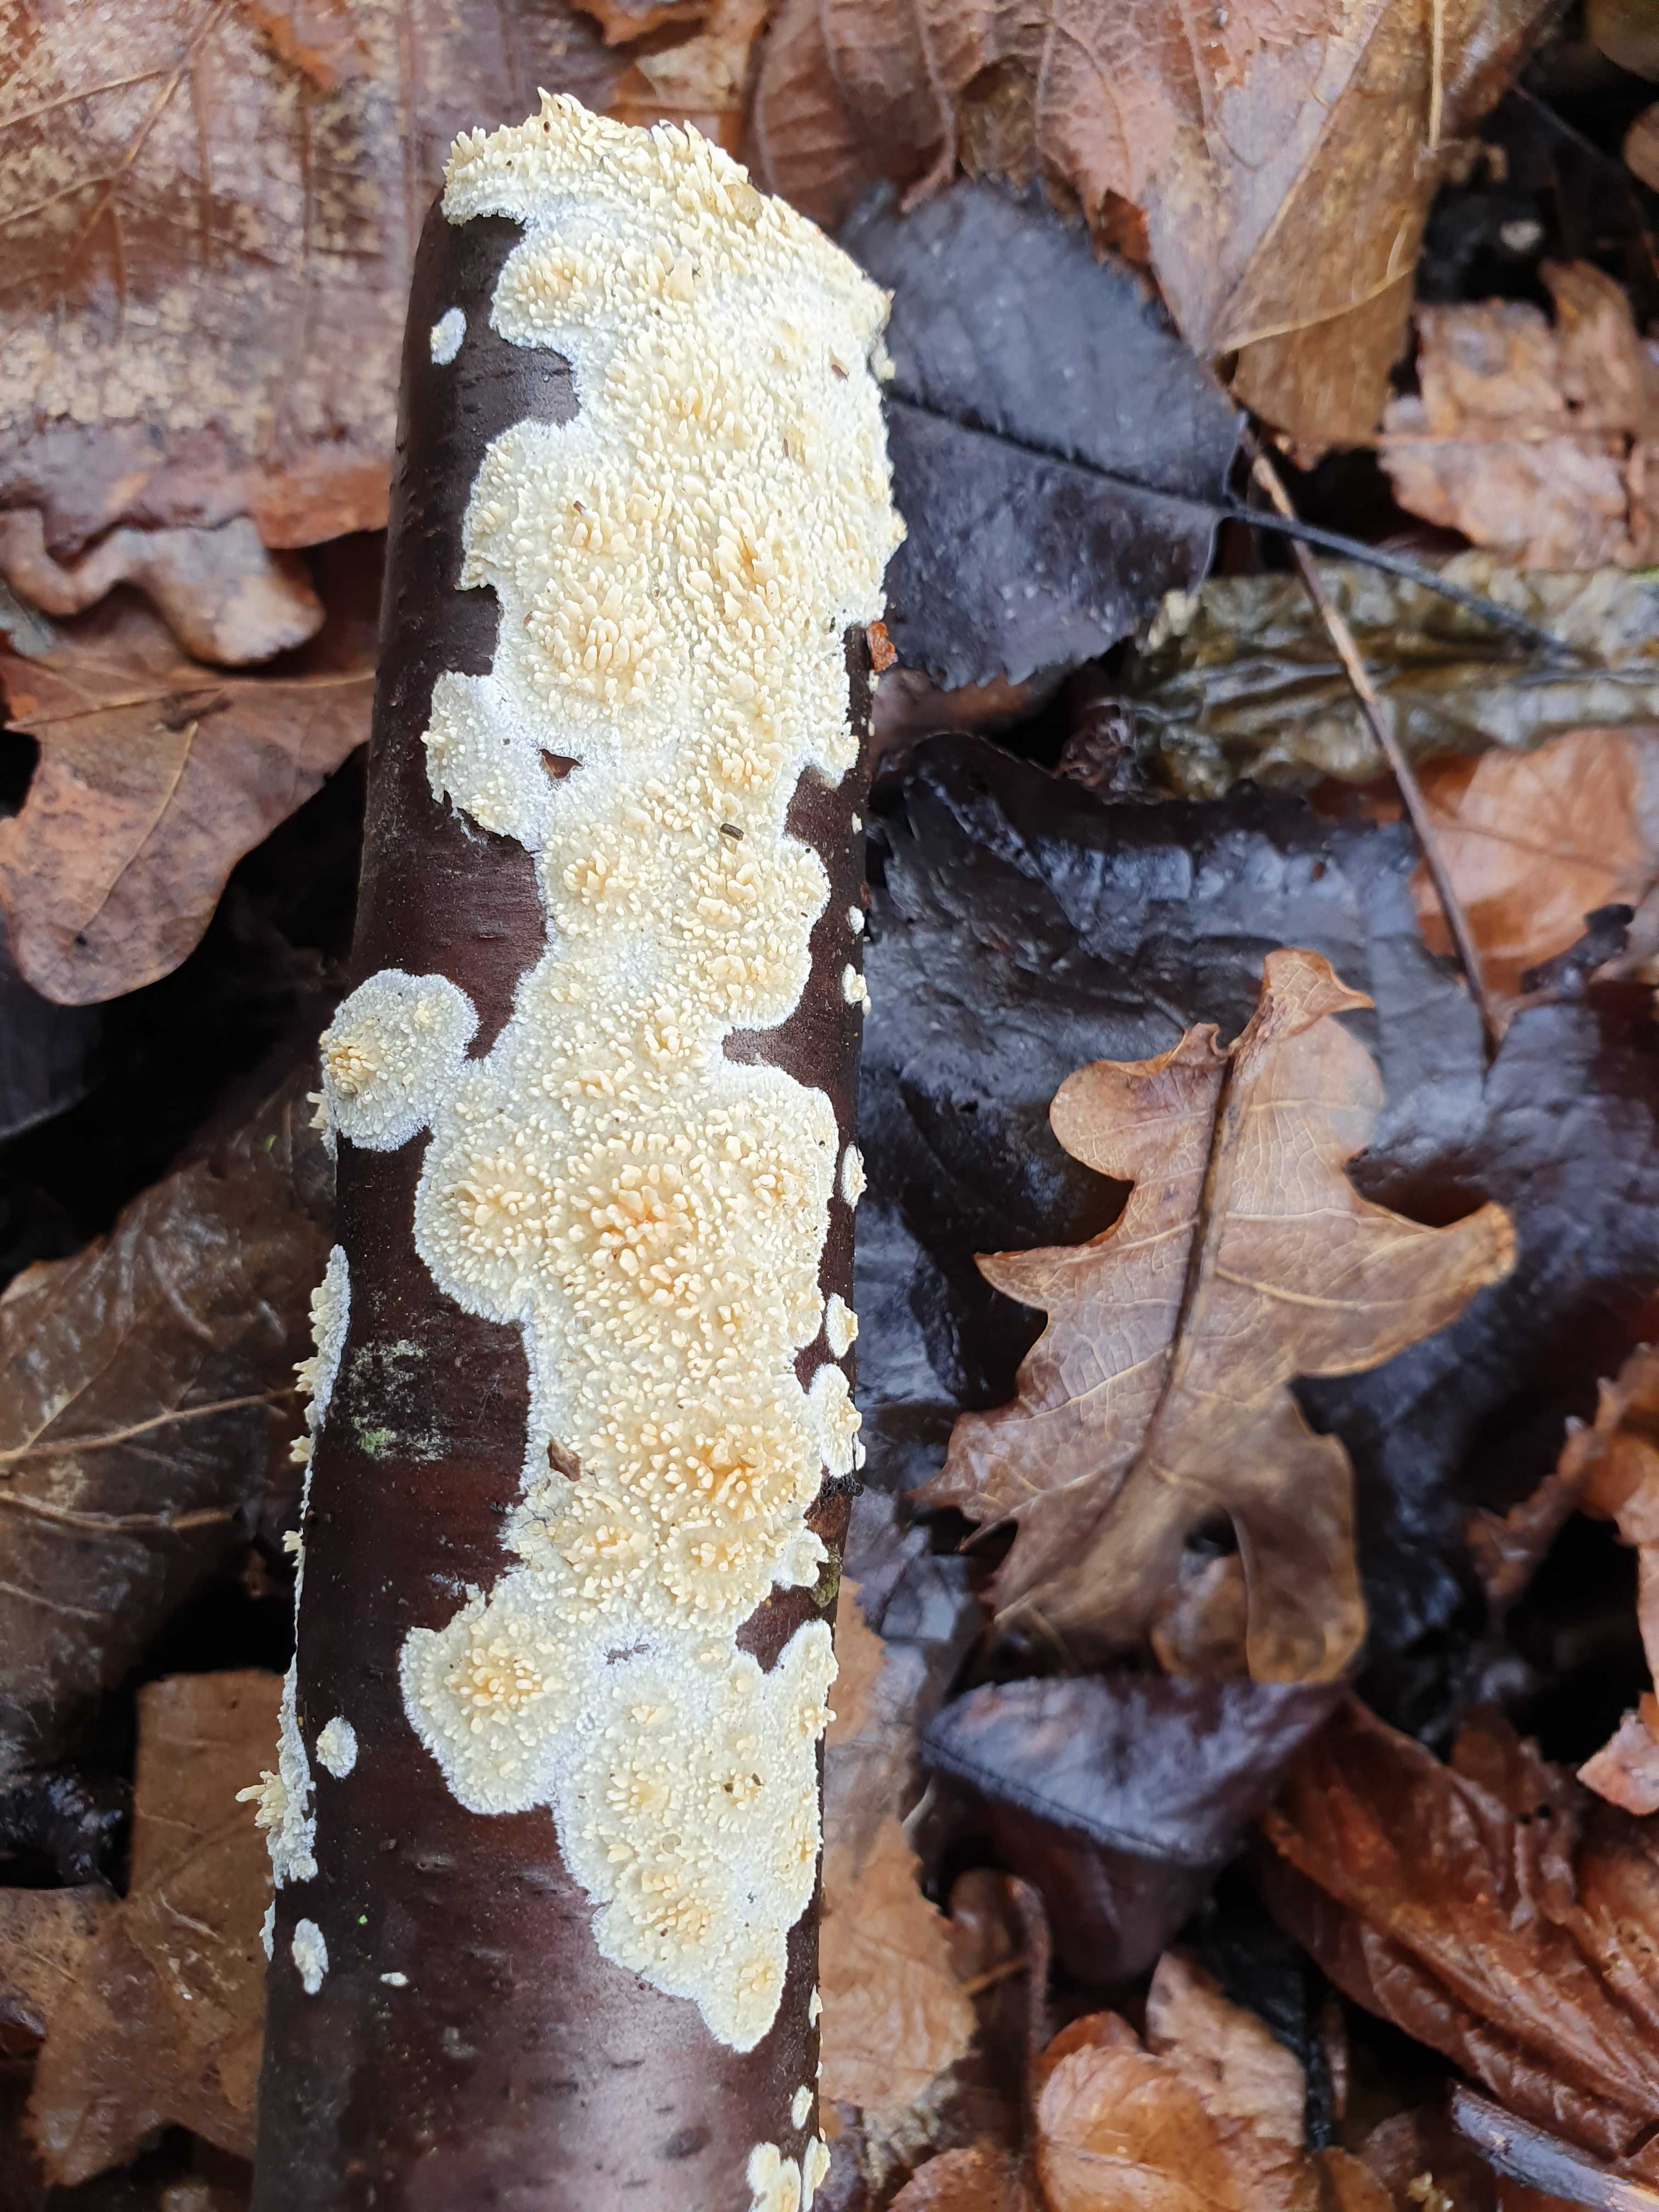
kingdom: Fungi
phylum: Basidiomycota
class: Agaricomycetes
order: Hymenochaetales
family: Schizoporaceae
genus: Xylodon
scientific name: Xylodon radula
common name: grovtandet kalkskind
